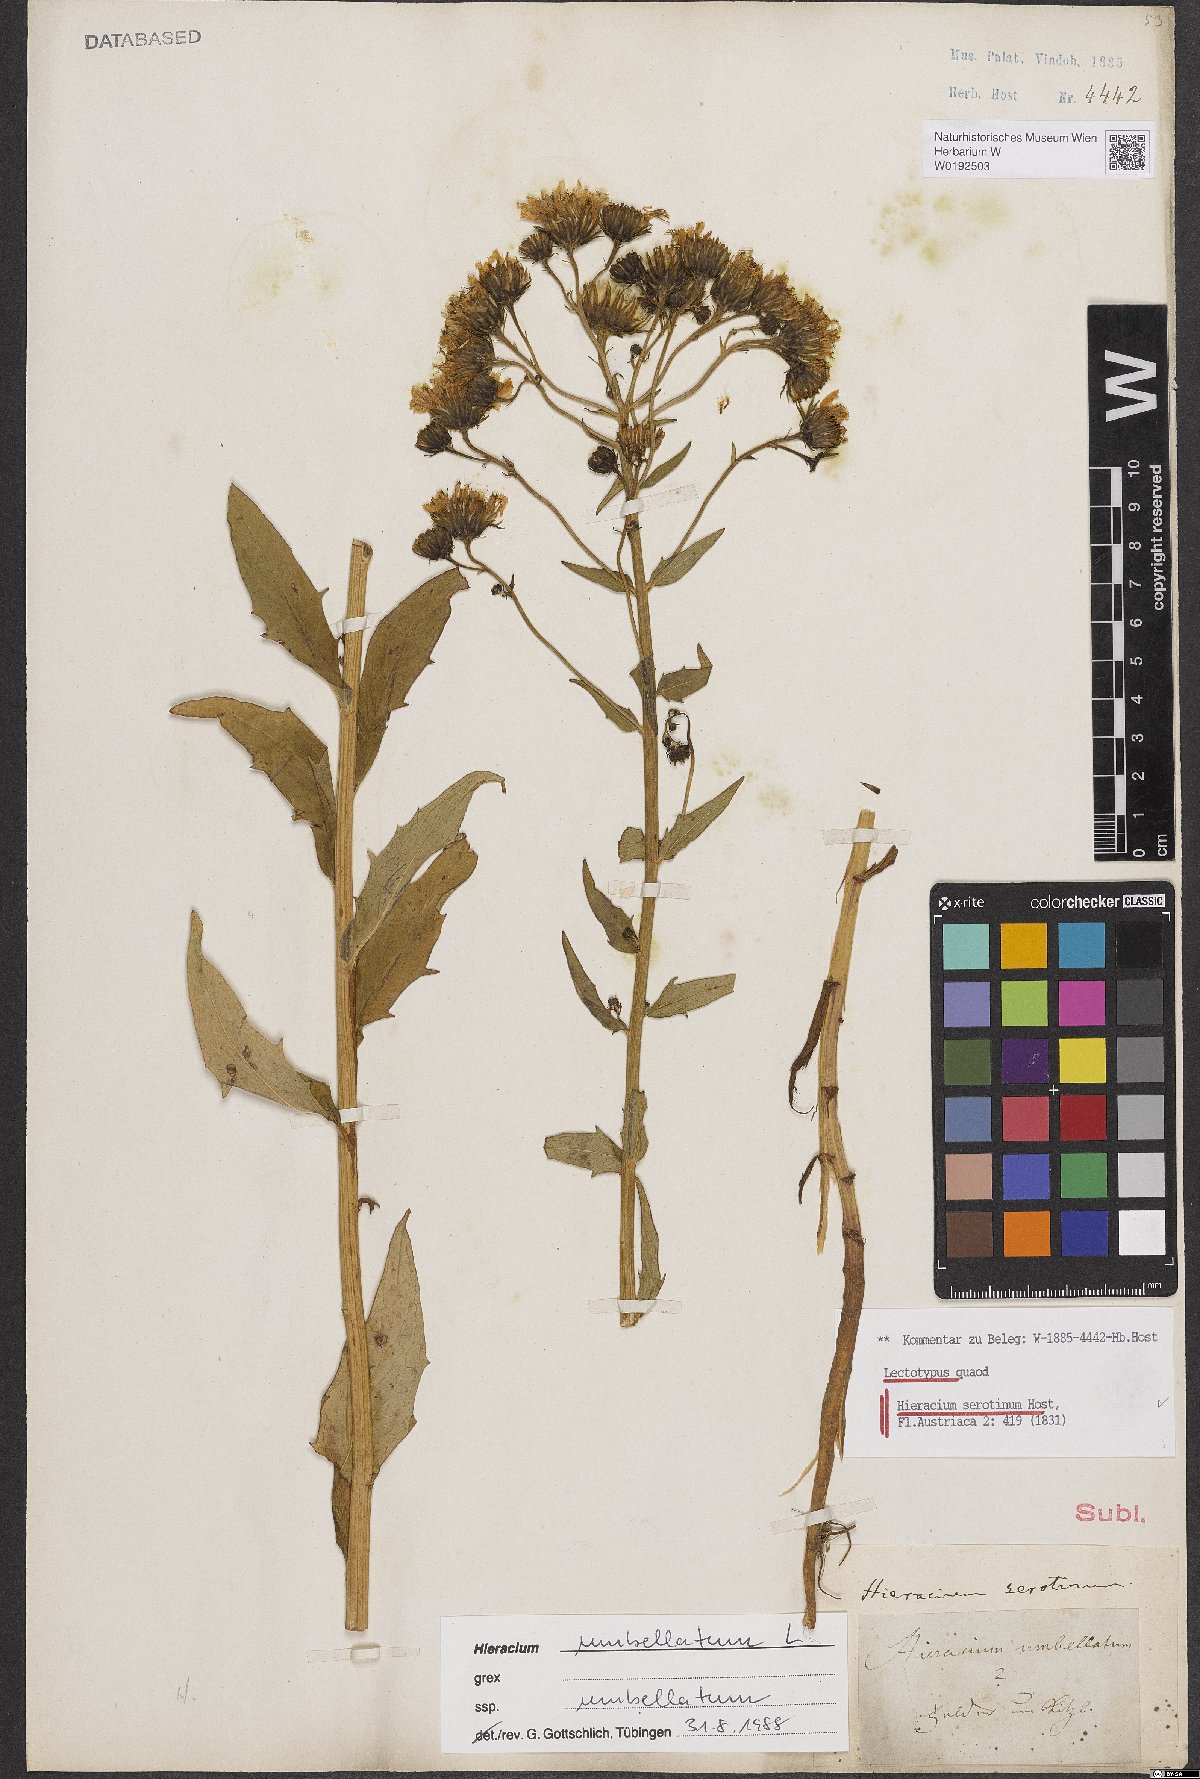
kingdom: Plantae
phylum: Tracheophyta
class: Magnoliopsida
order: Asterales
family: Asteraceae
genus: Hieracium
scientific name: Hieracium umbellatum
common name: Northern hawkweed
